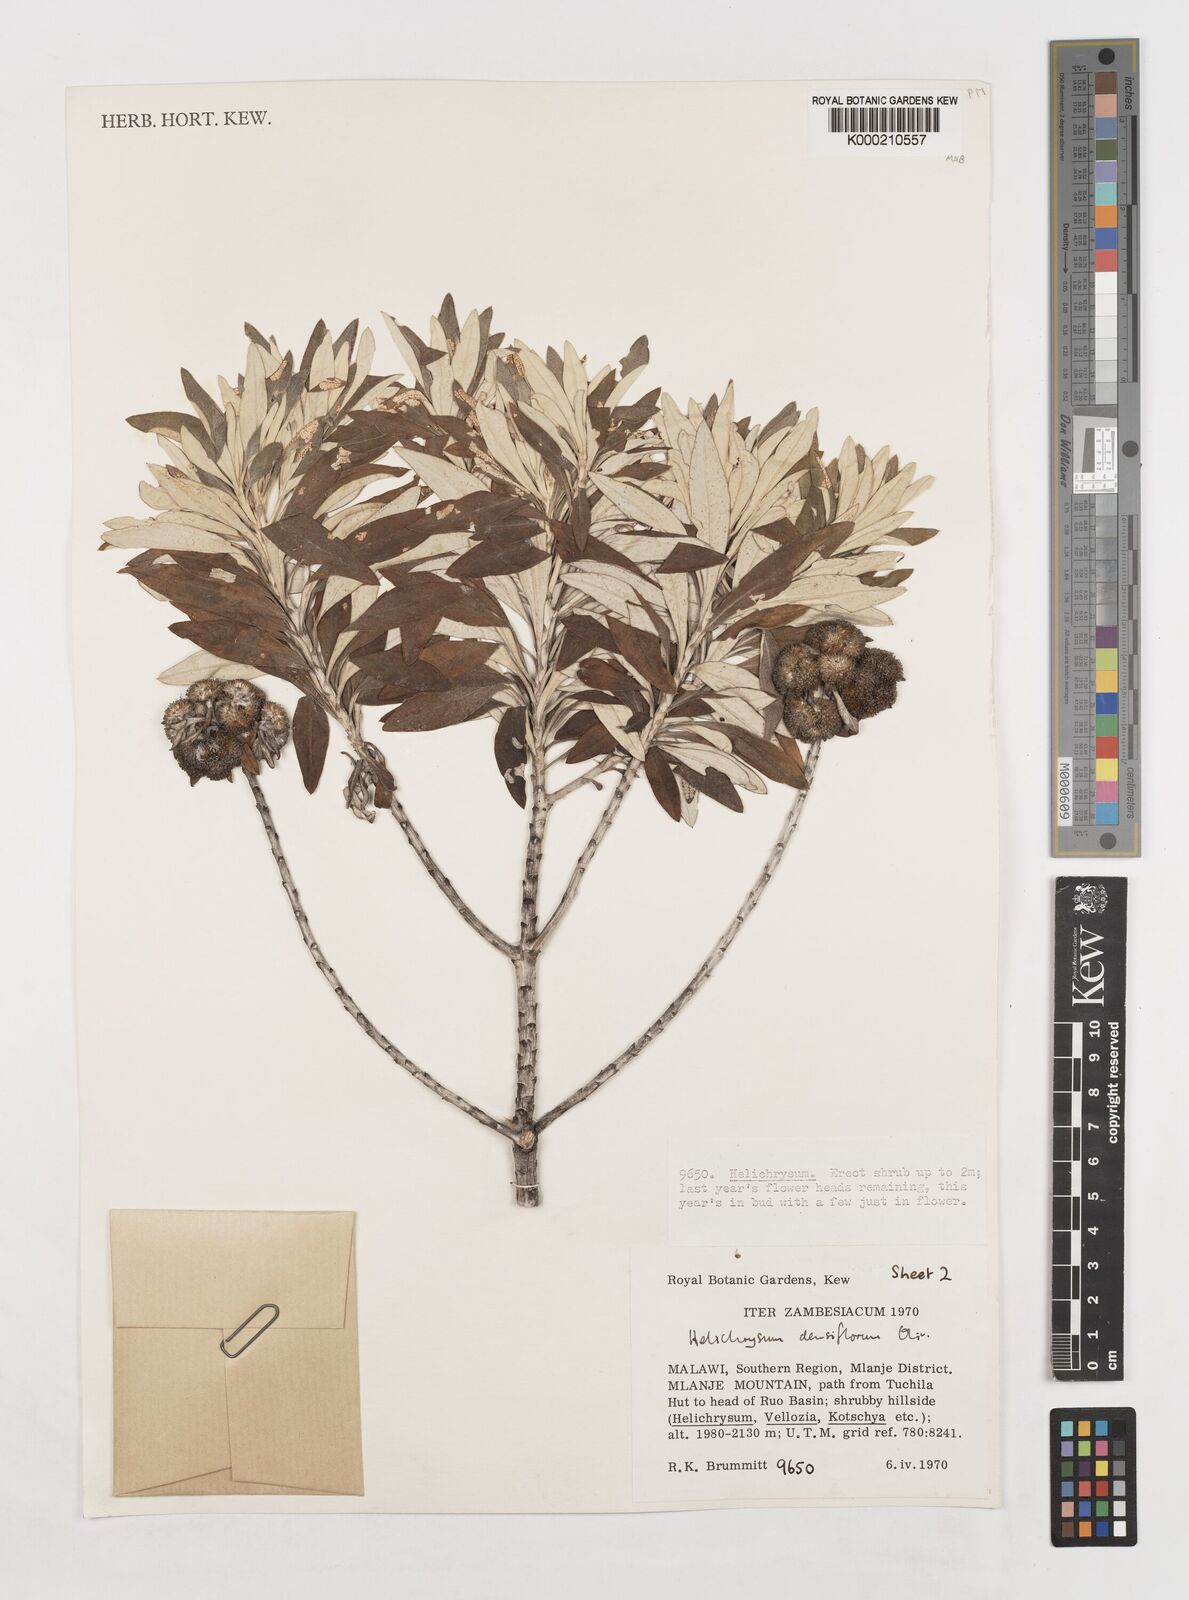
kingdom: Plantae
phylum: Tracheophyta
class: Magnoliopsida
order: Asterales
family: Asteraceae
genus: Helichrysum
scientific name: Helichrysum densiflorum
